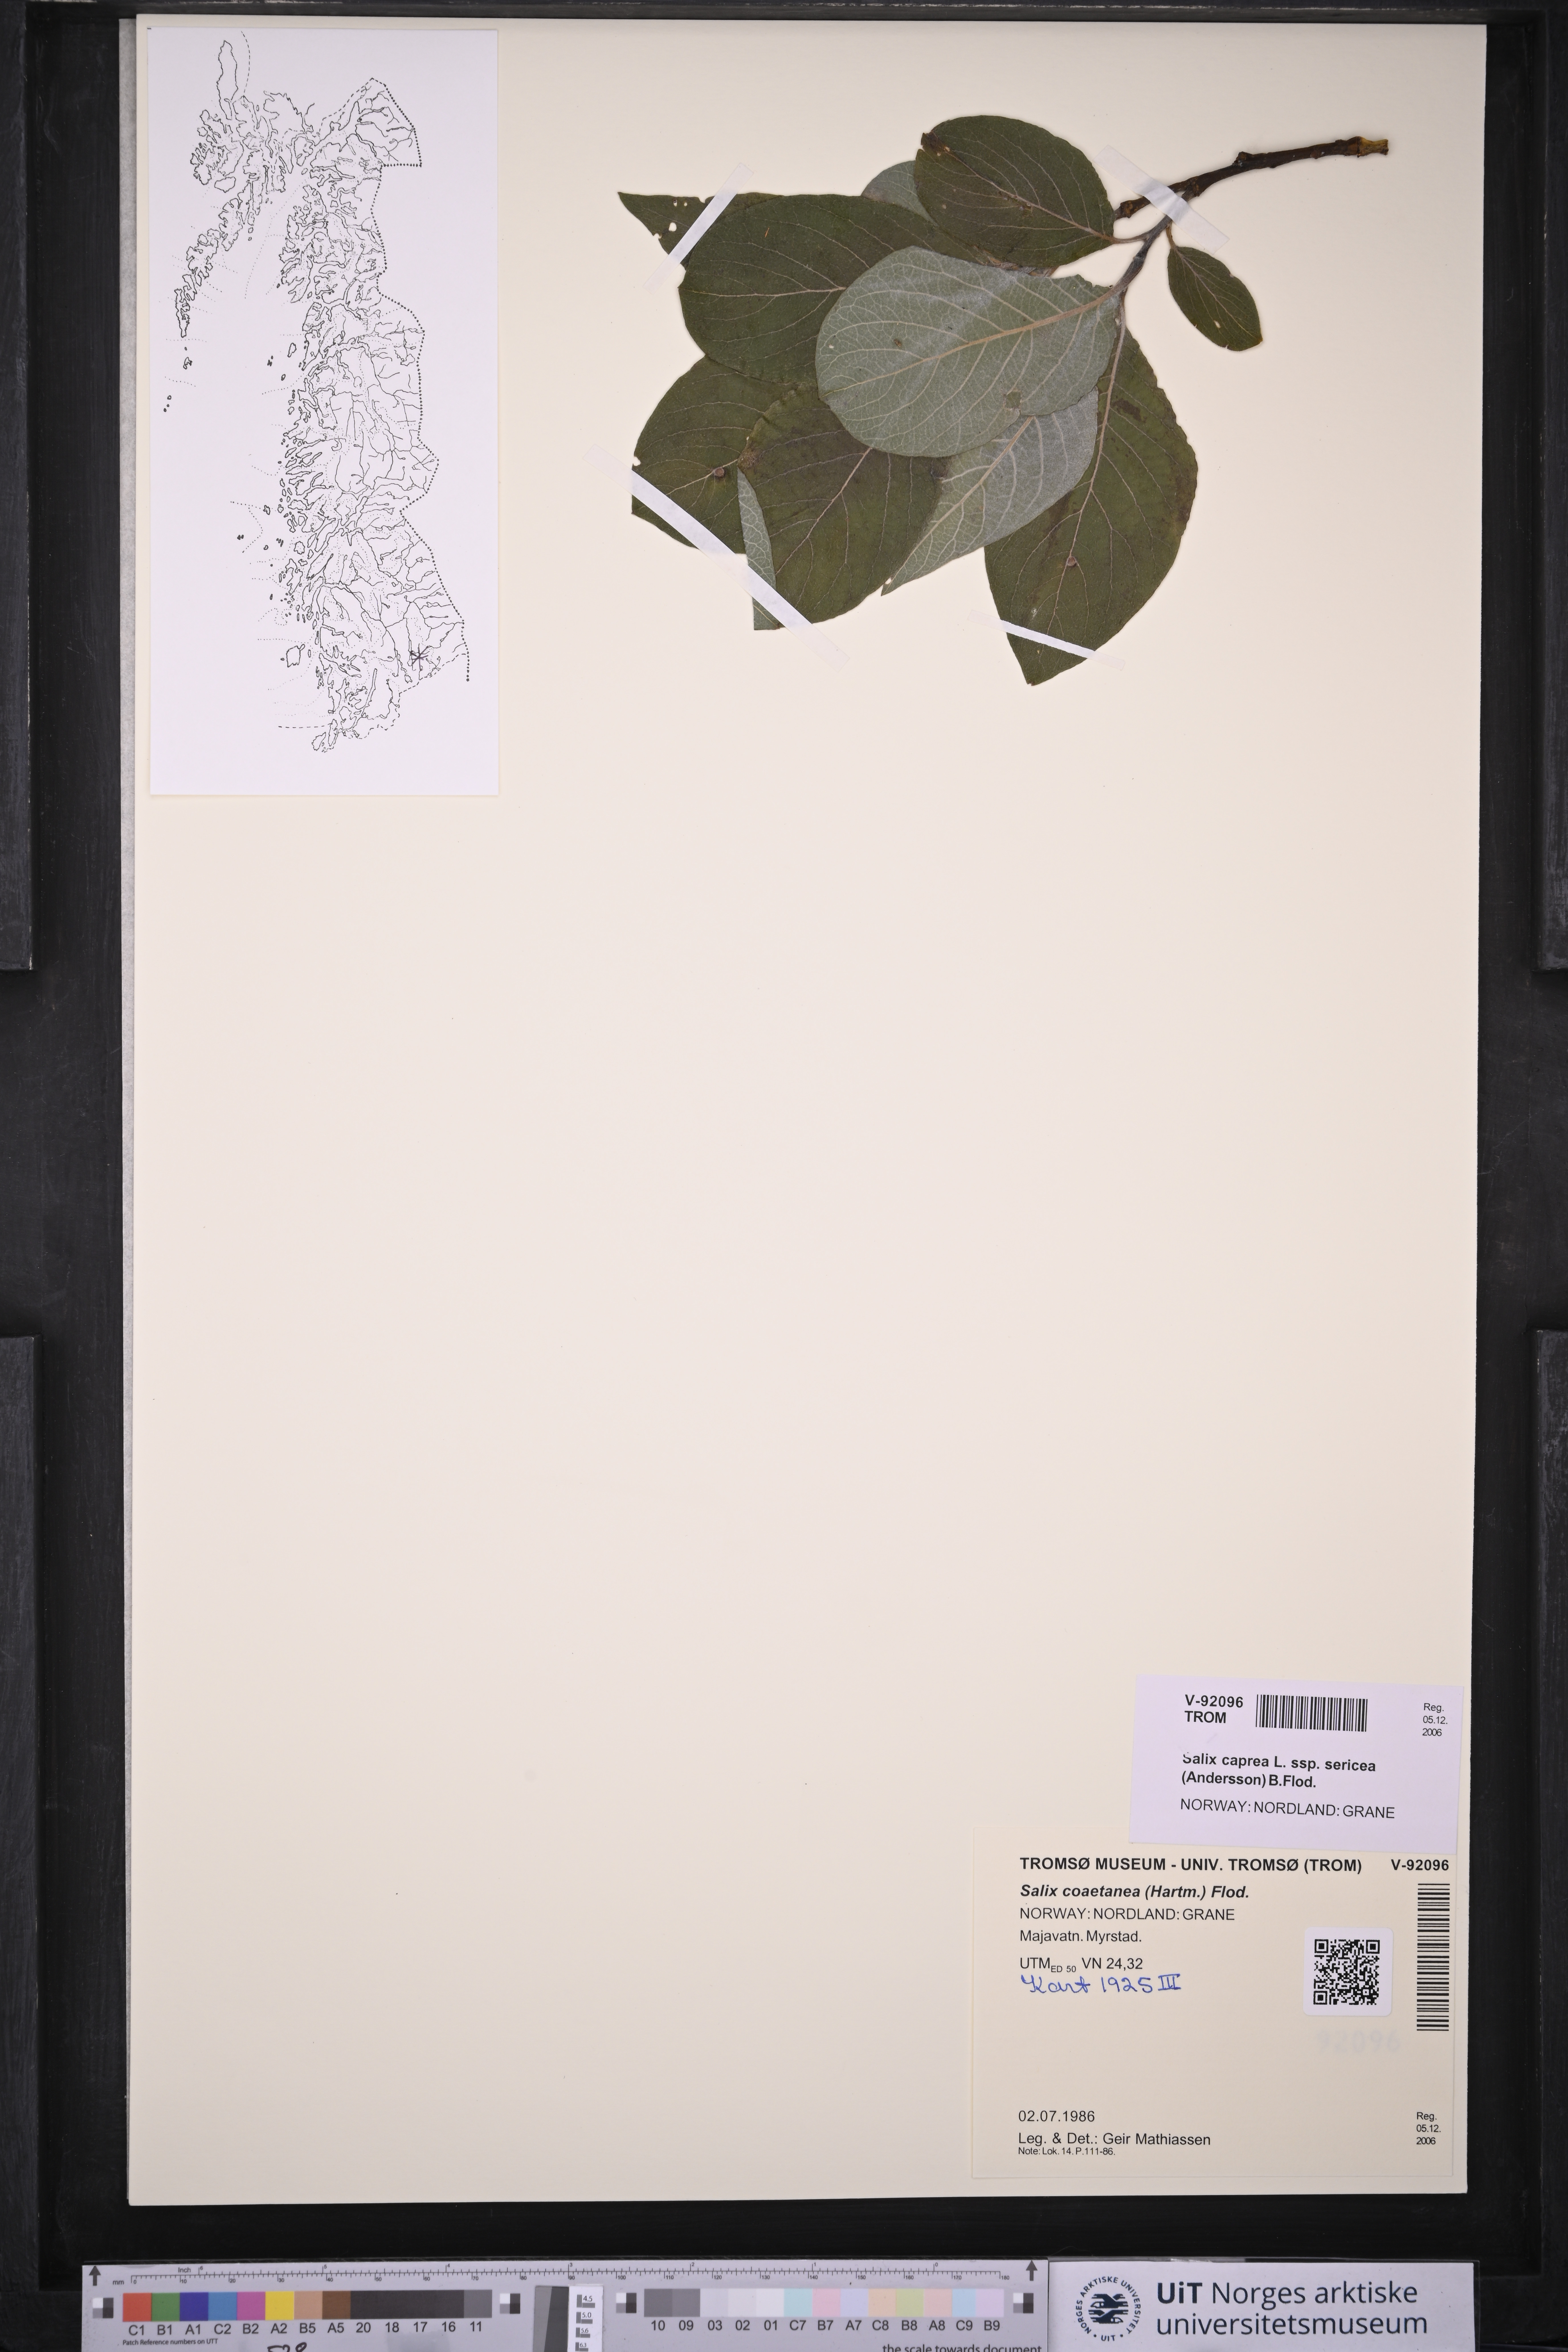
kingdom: Plantae
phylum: Tracheophyta
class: Magnoliopsida
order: Malpighiales
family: Salicaceae
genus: Salix
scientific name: Salix caprea
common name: Goat willow
